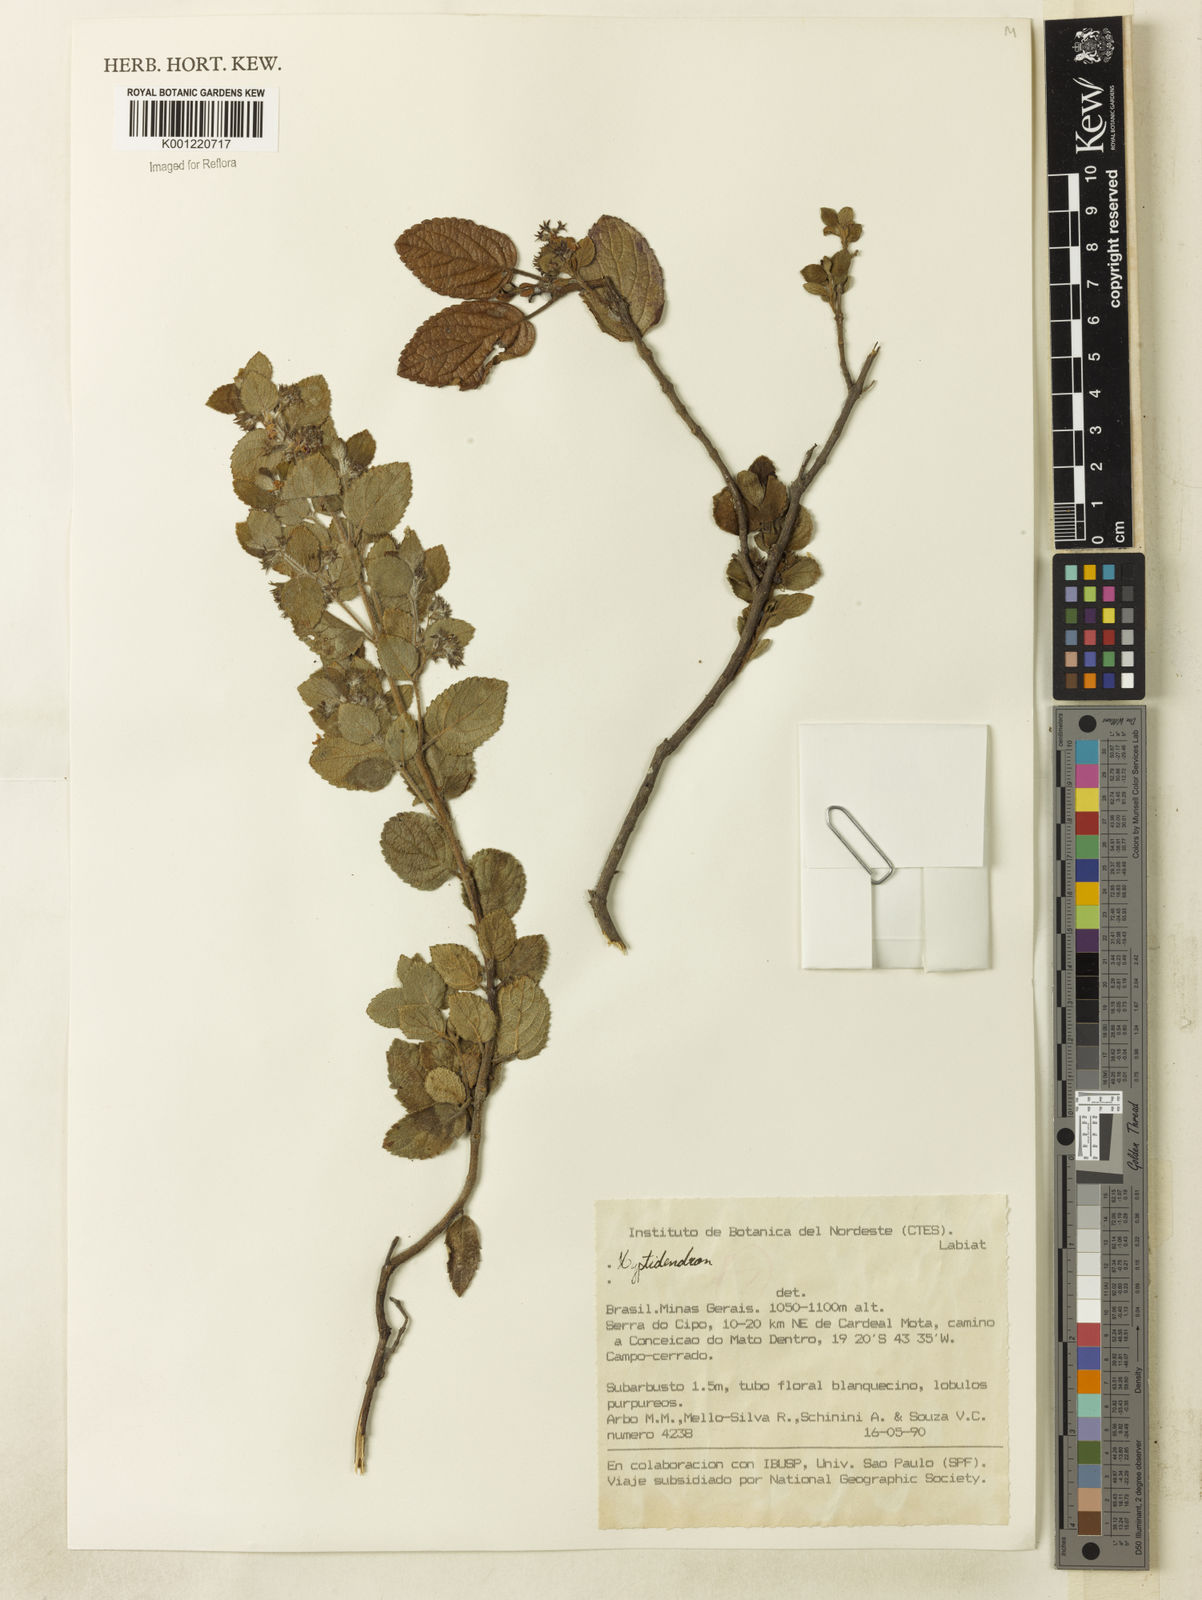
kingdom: Plantae
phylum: Tracheophyta
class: Magnoliopsida
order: Lamiales
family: Lamiaceae
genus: Hyptidendron
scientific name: Hyptidendron vauthieri
